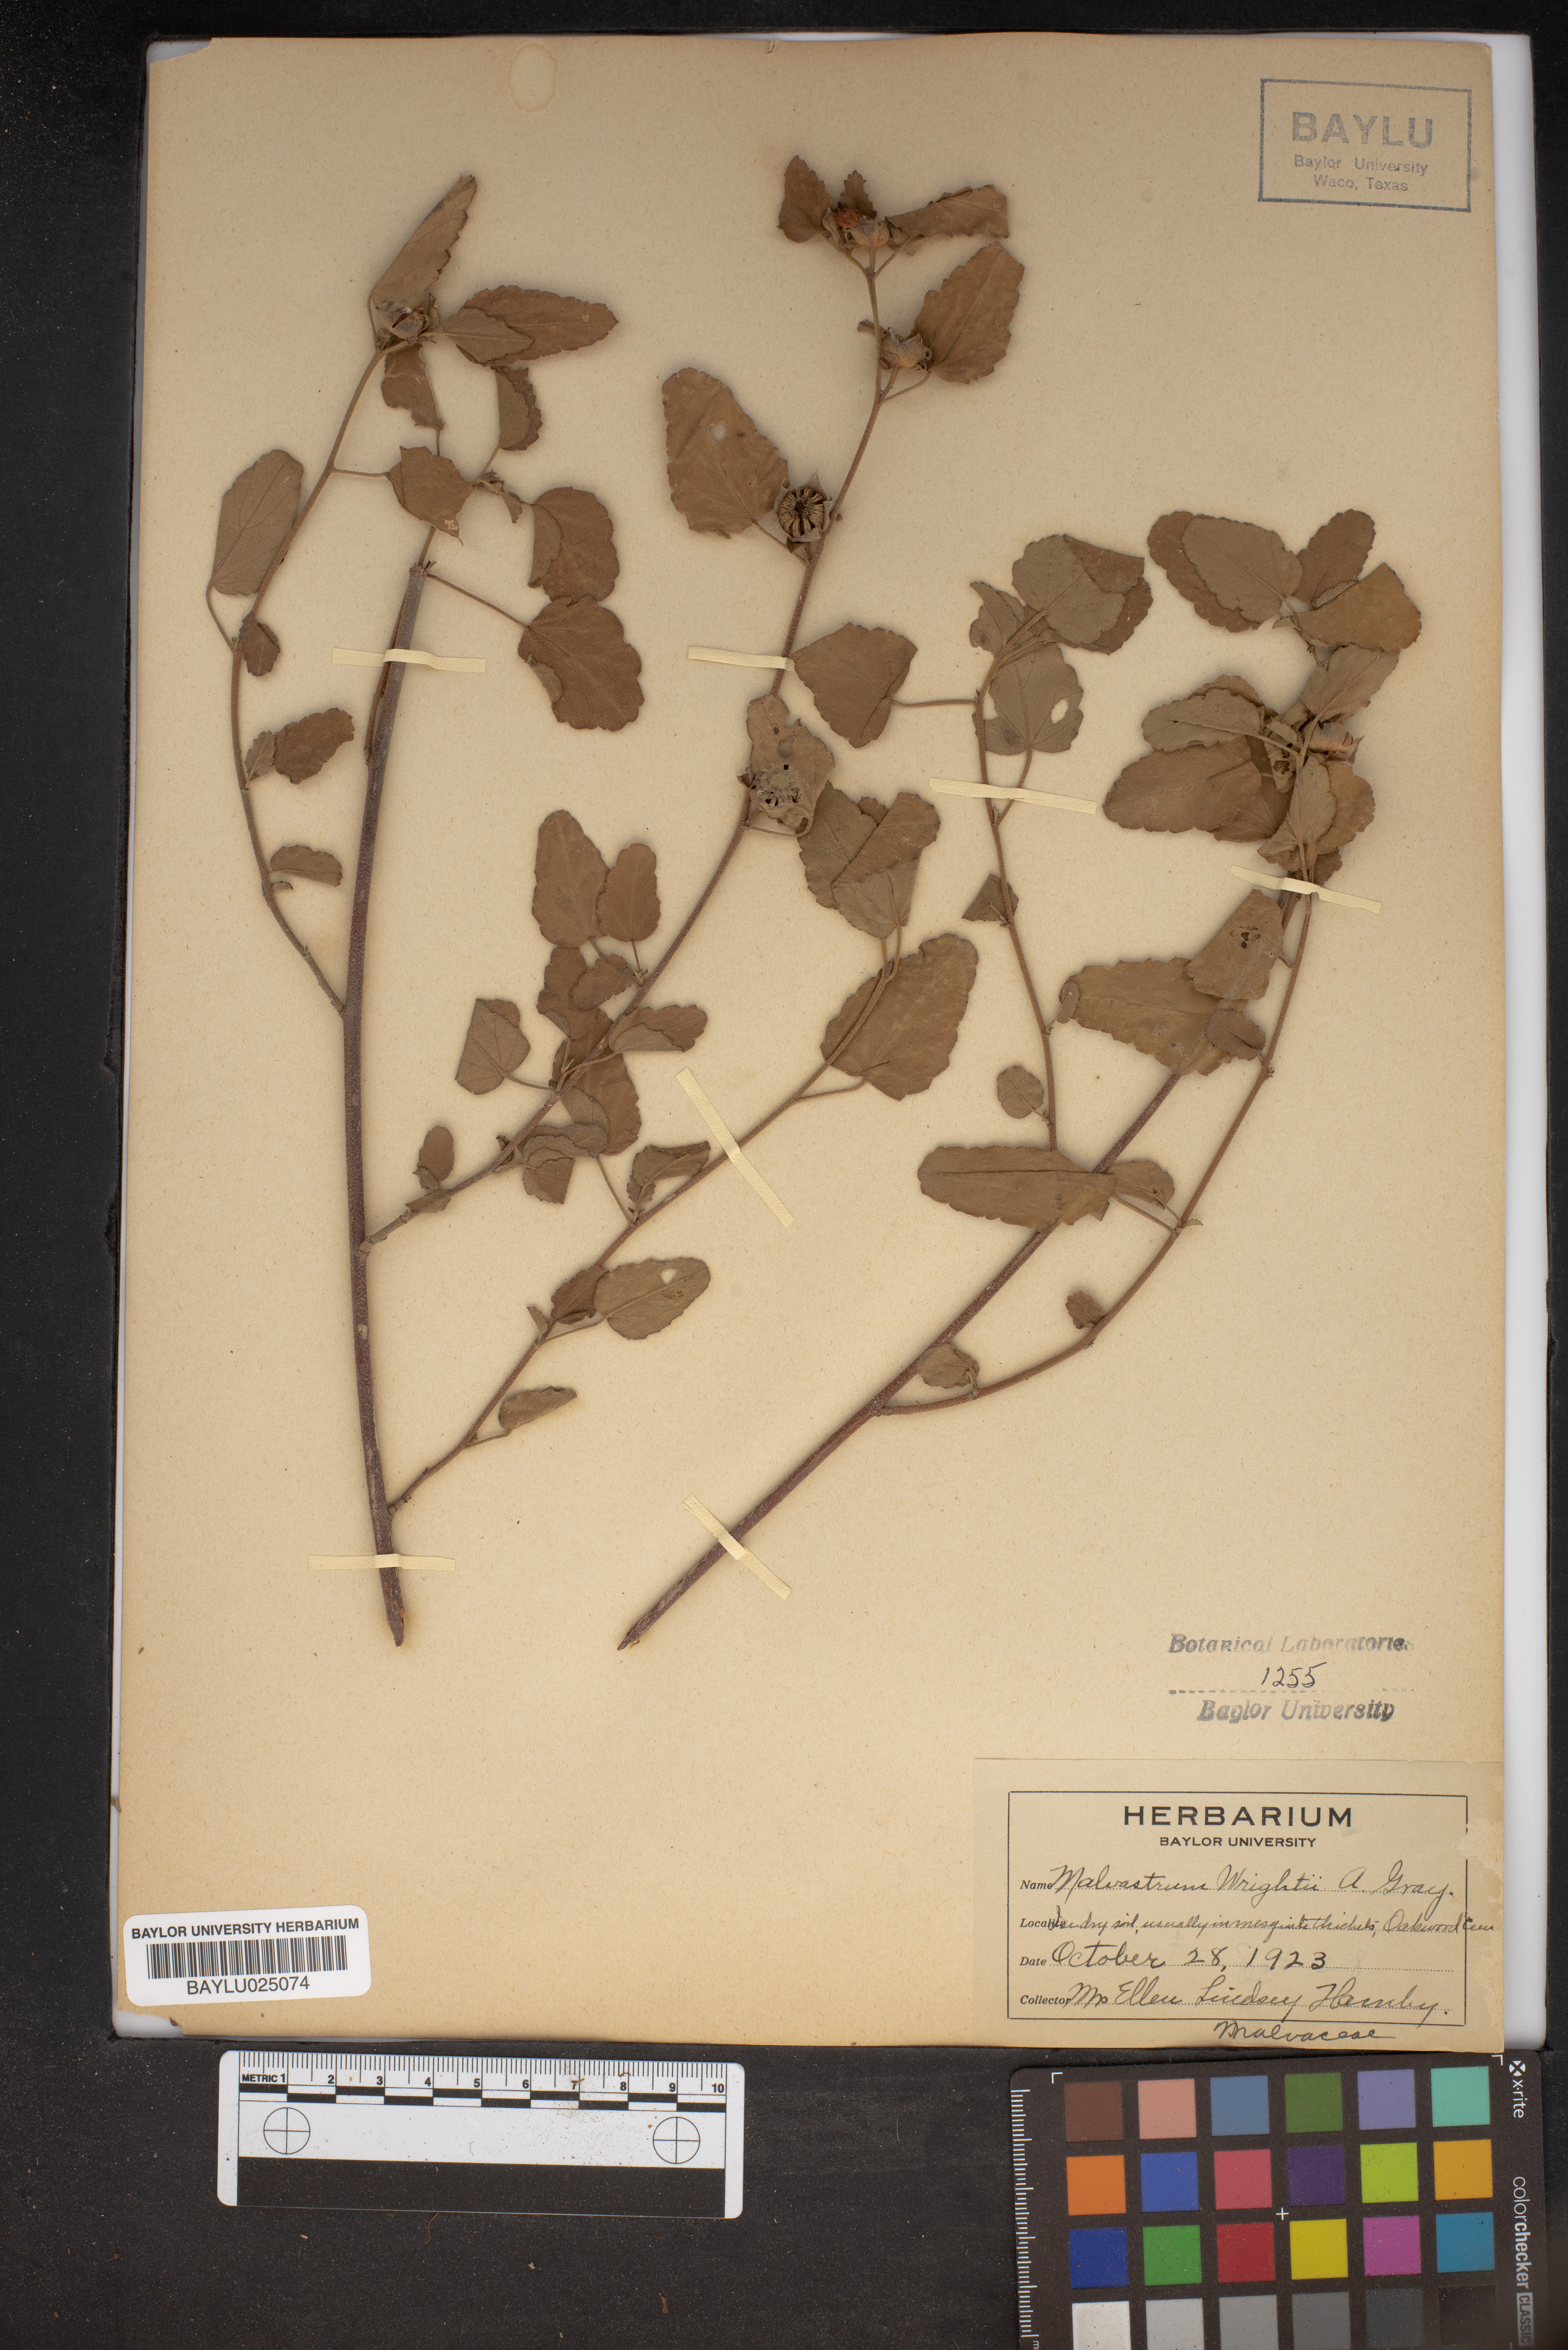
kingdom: Plantae
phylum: Tracheophyta
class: Magnoliopsida
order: Malvales
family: Malvaceae
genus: Malvastrum
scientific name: Malvastrum aurantiacum
